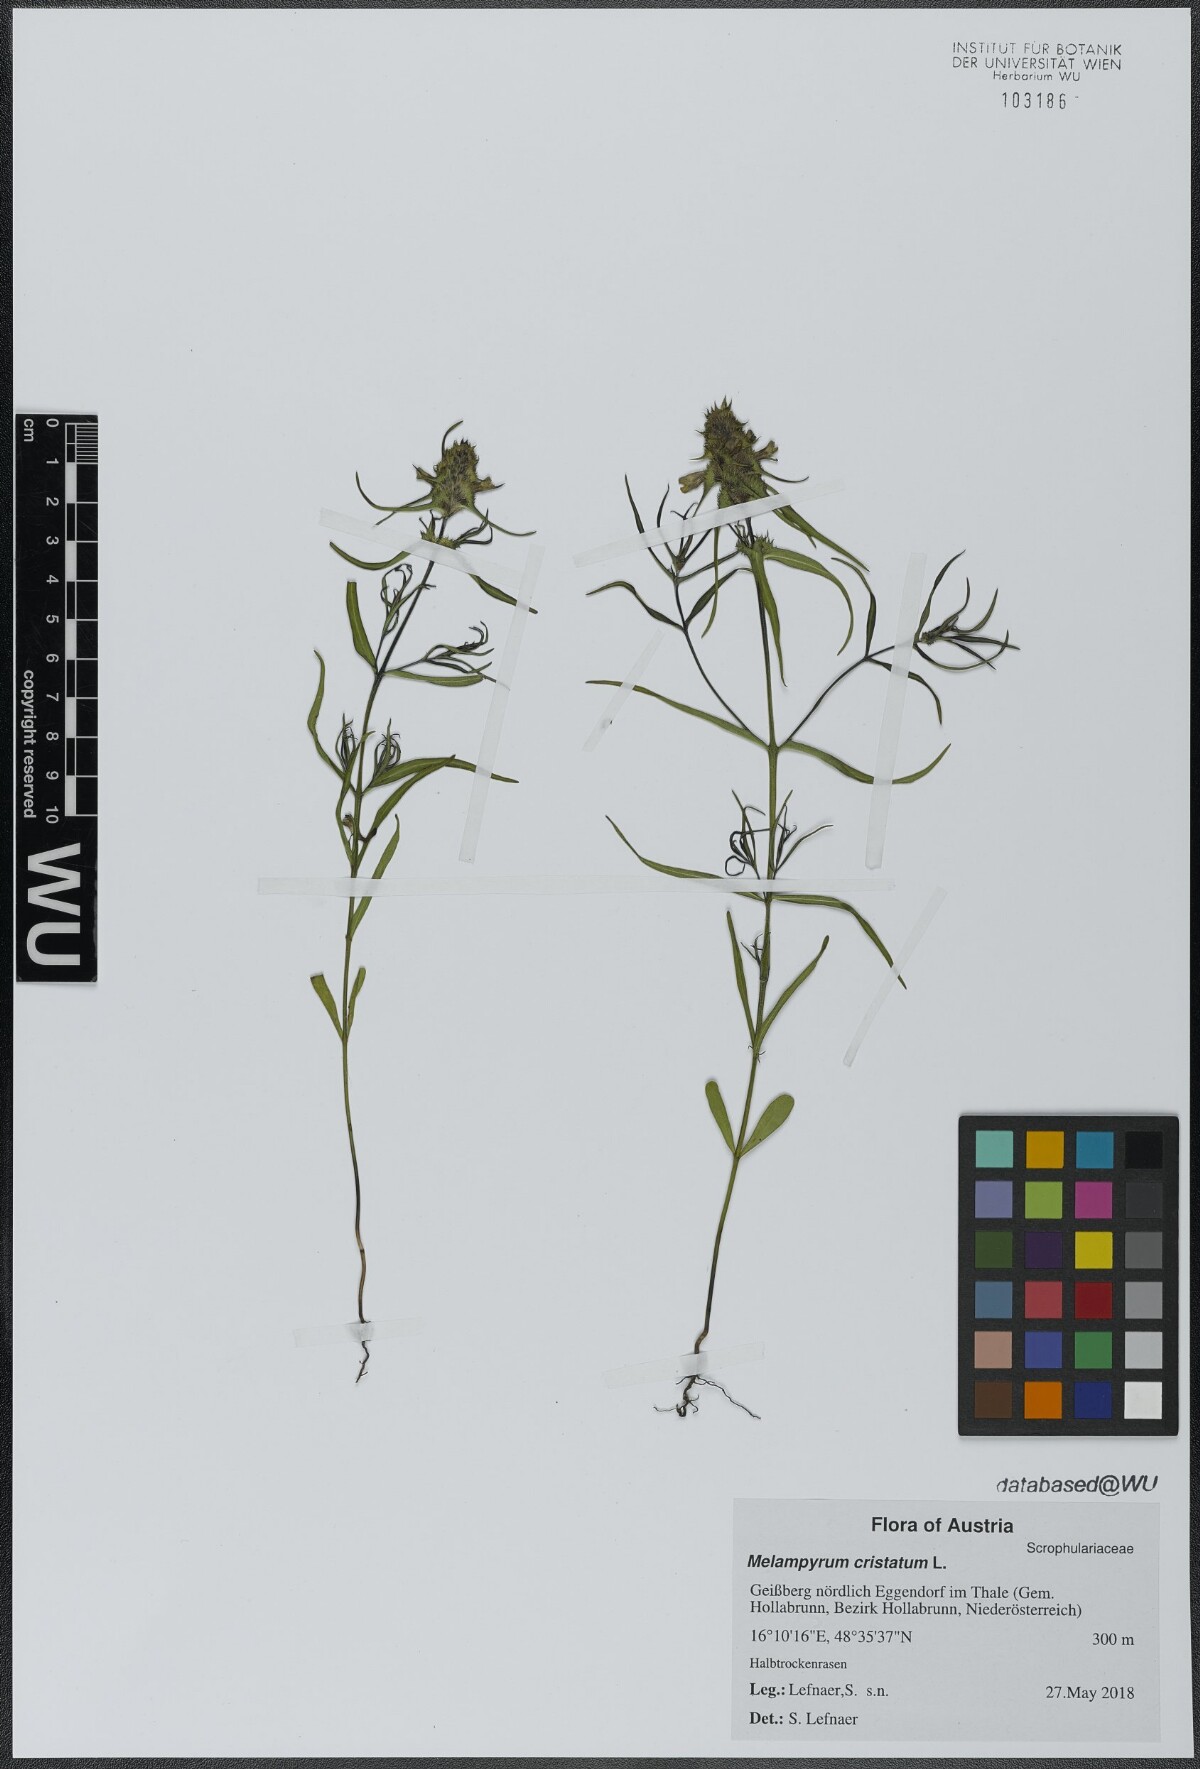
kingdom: Plantae
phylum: Tracheophyta
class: Magnoliopsida
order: Lamiales
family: Orobanchaceae
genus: Melampyrum
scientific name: Melampyrum cristatum
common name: Crested cow-wheat
